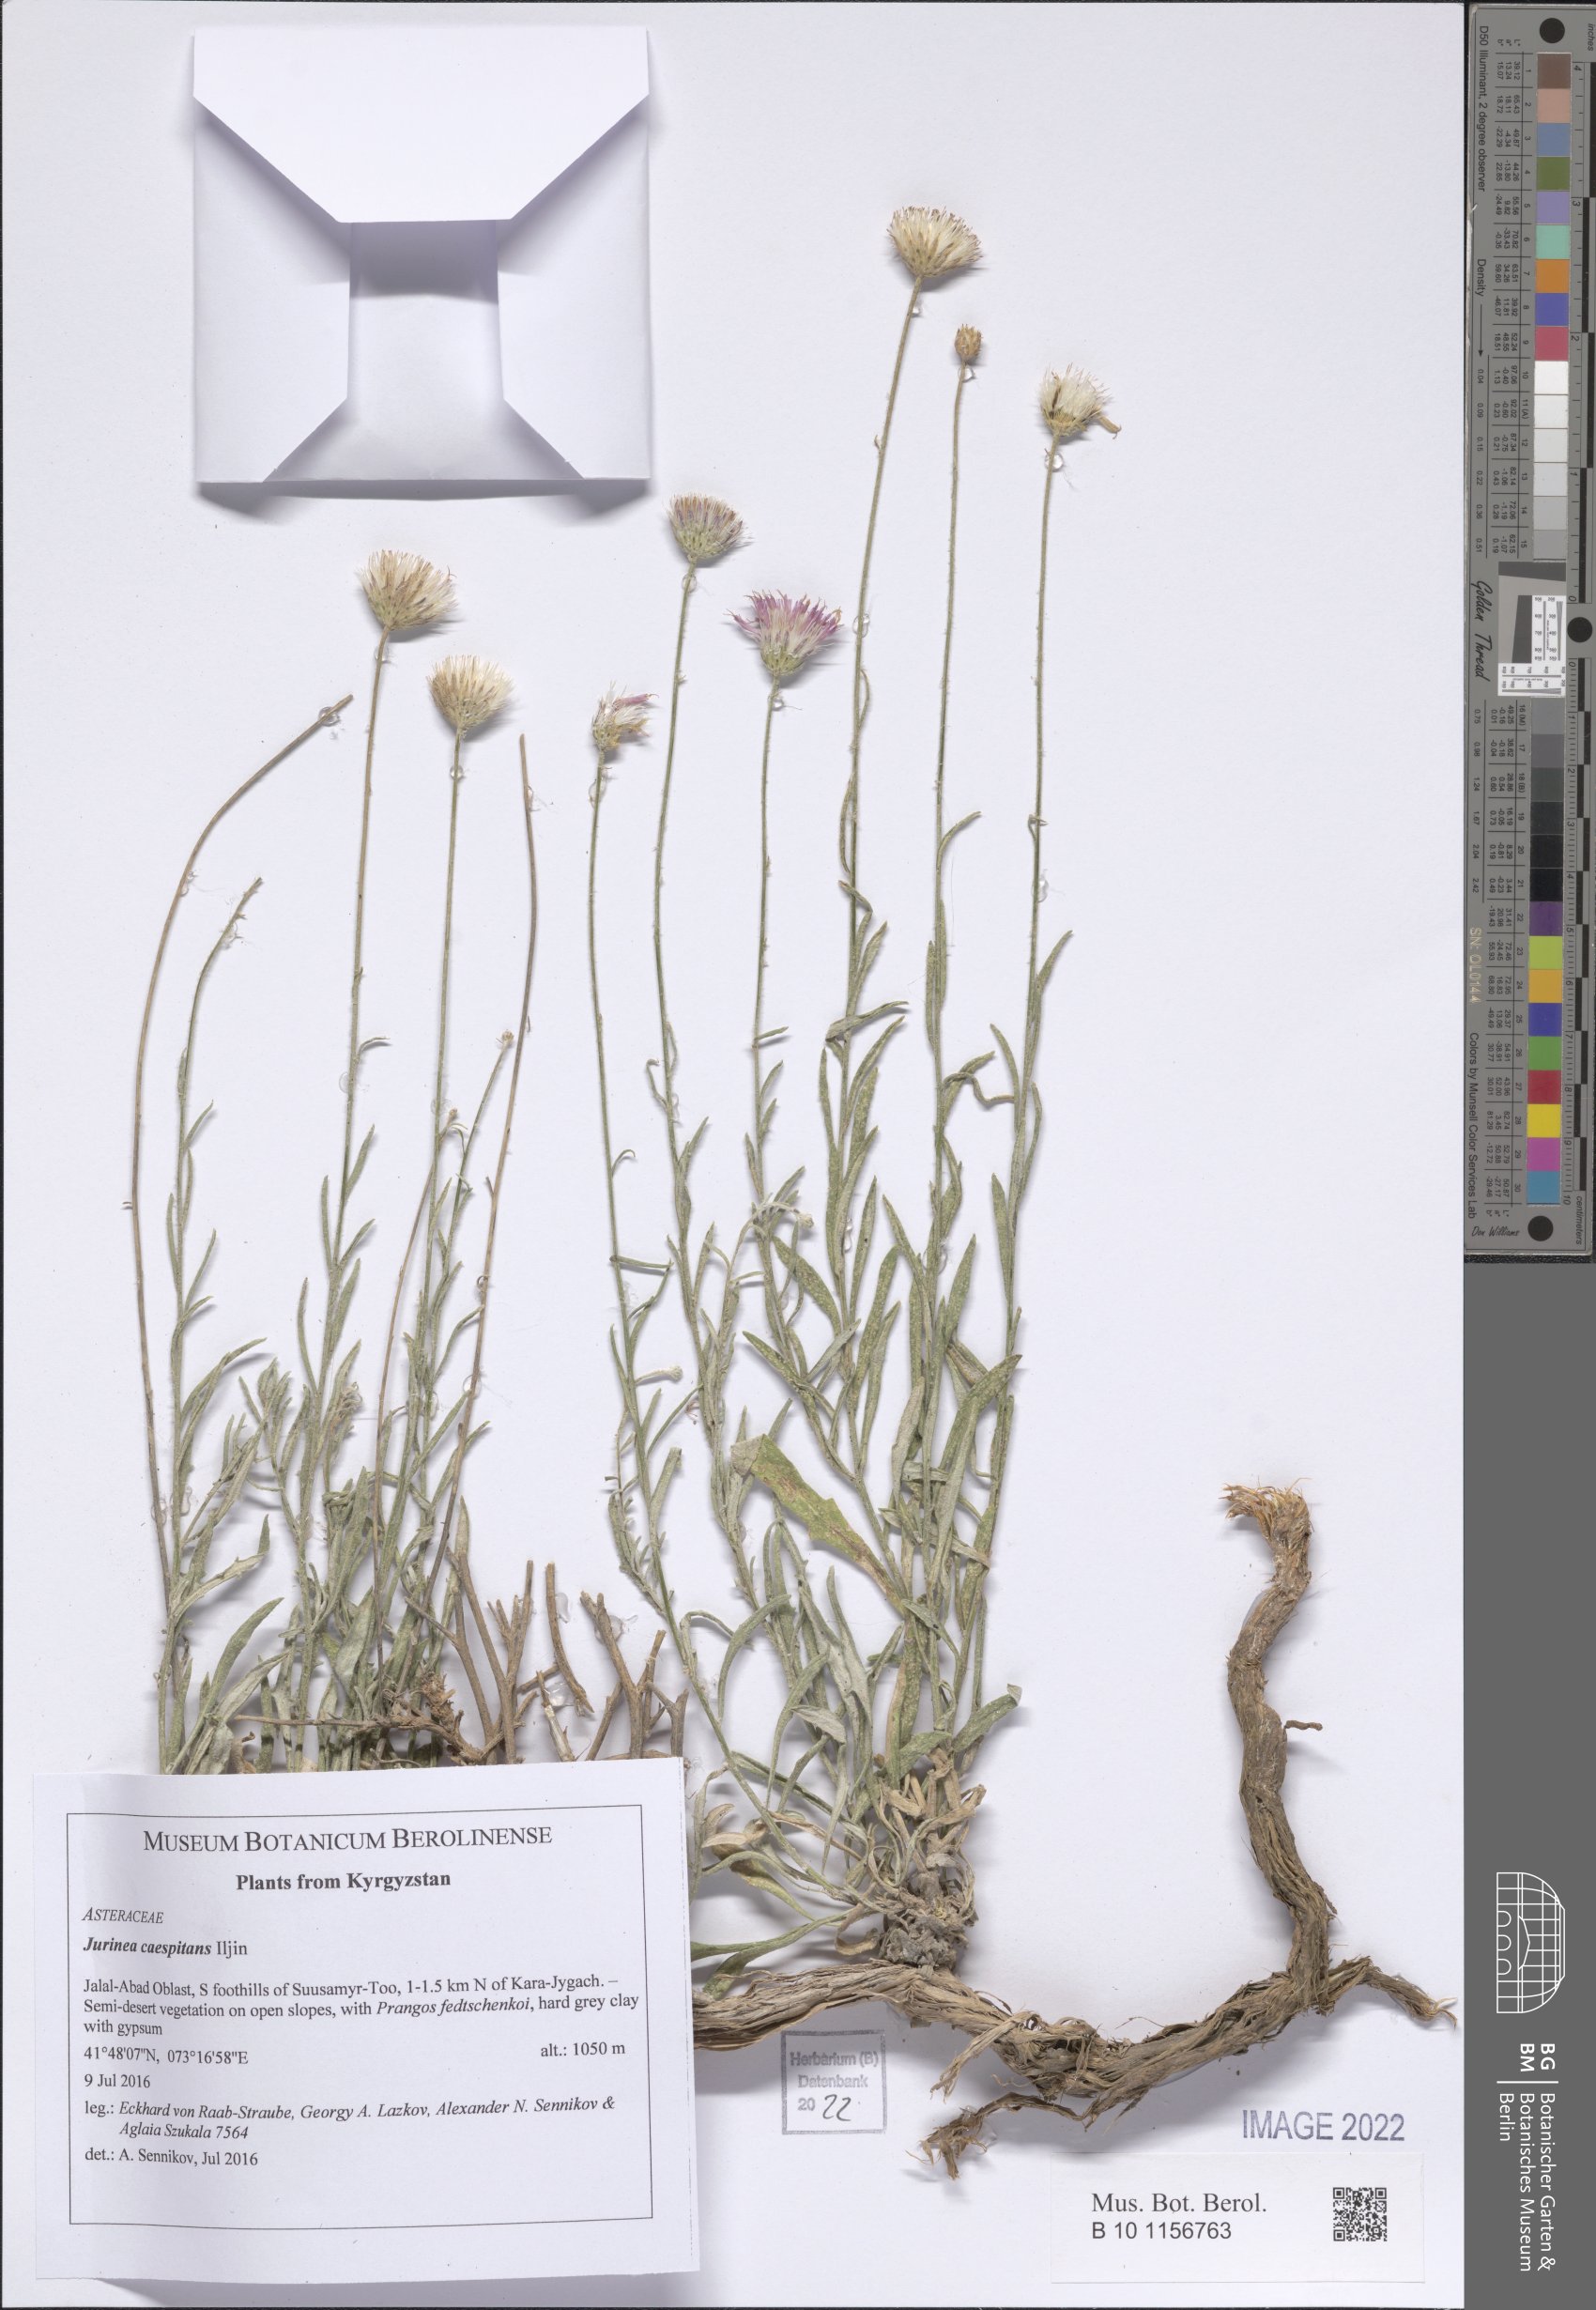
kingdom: Plantae
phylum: Tracheophyta
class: Magnoliopsida
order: Asterales
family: Asteraceae
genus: Jurinea
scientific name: Jurinea caespitans
